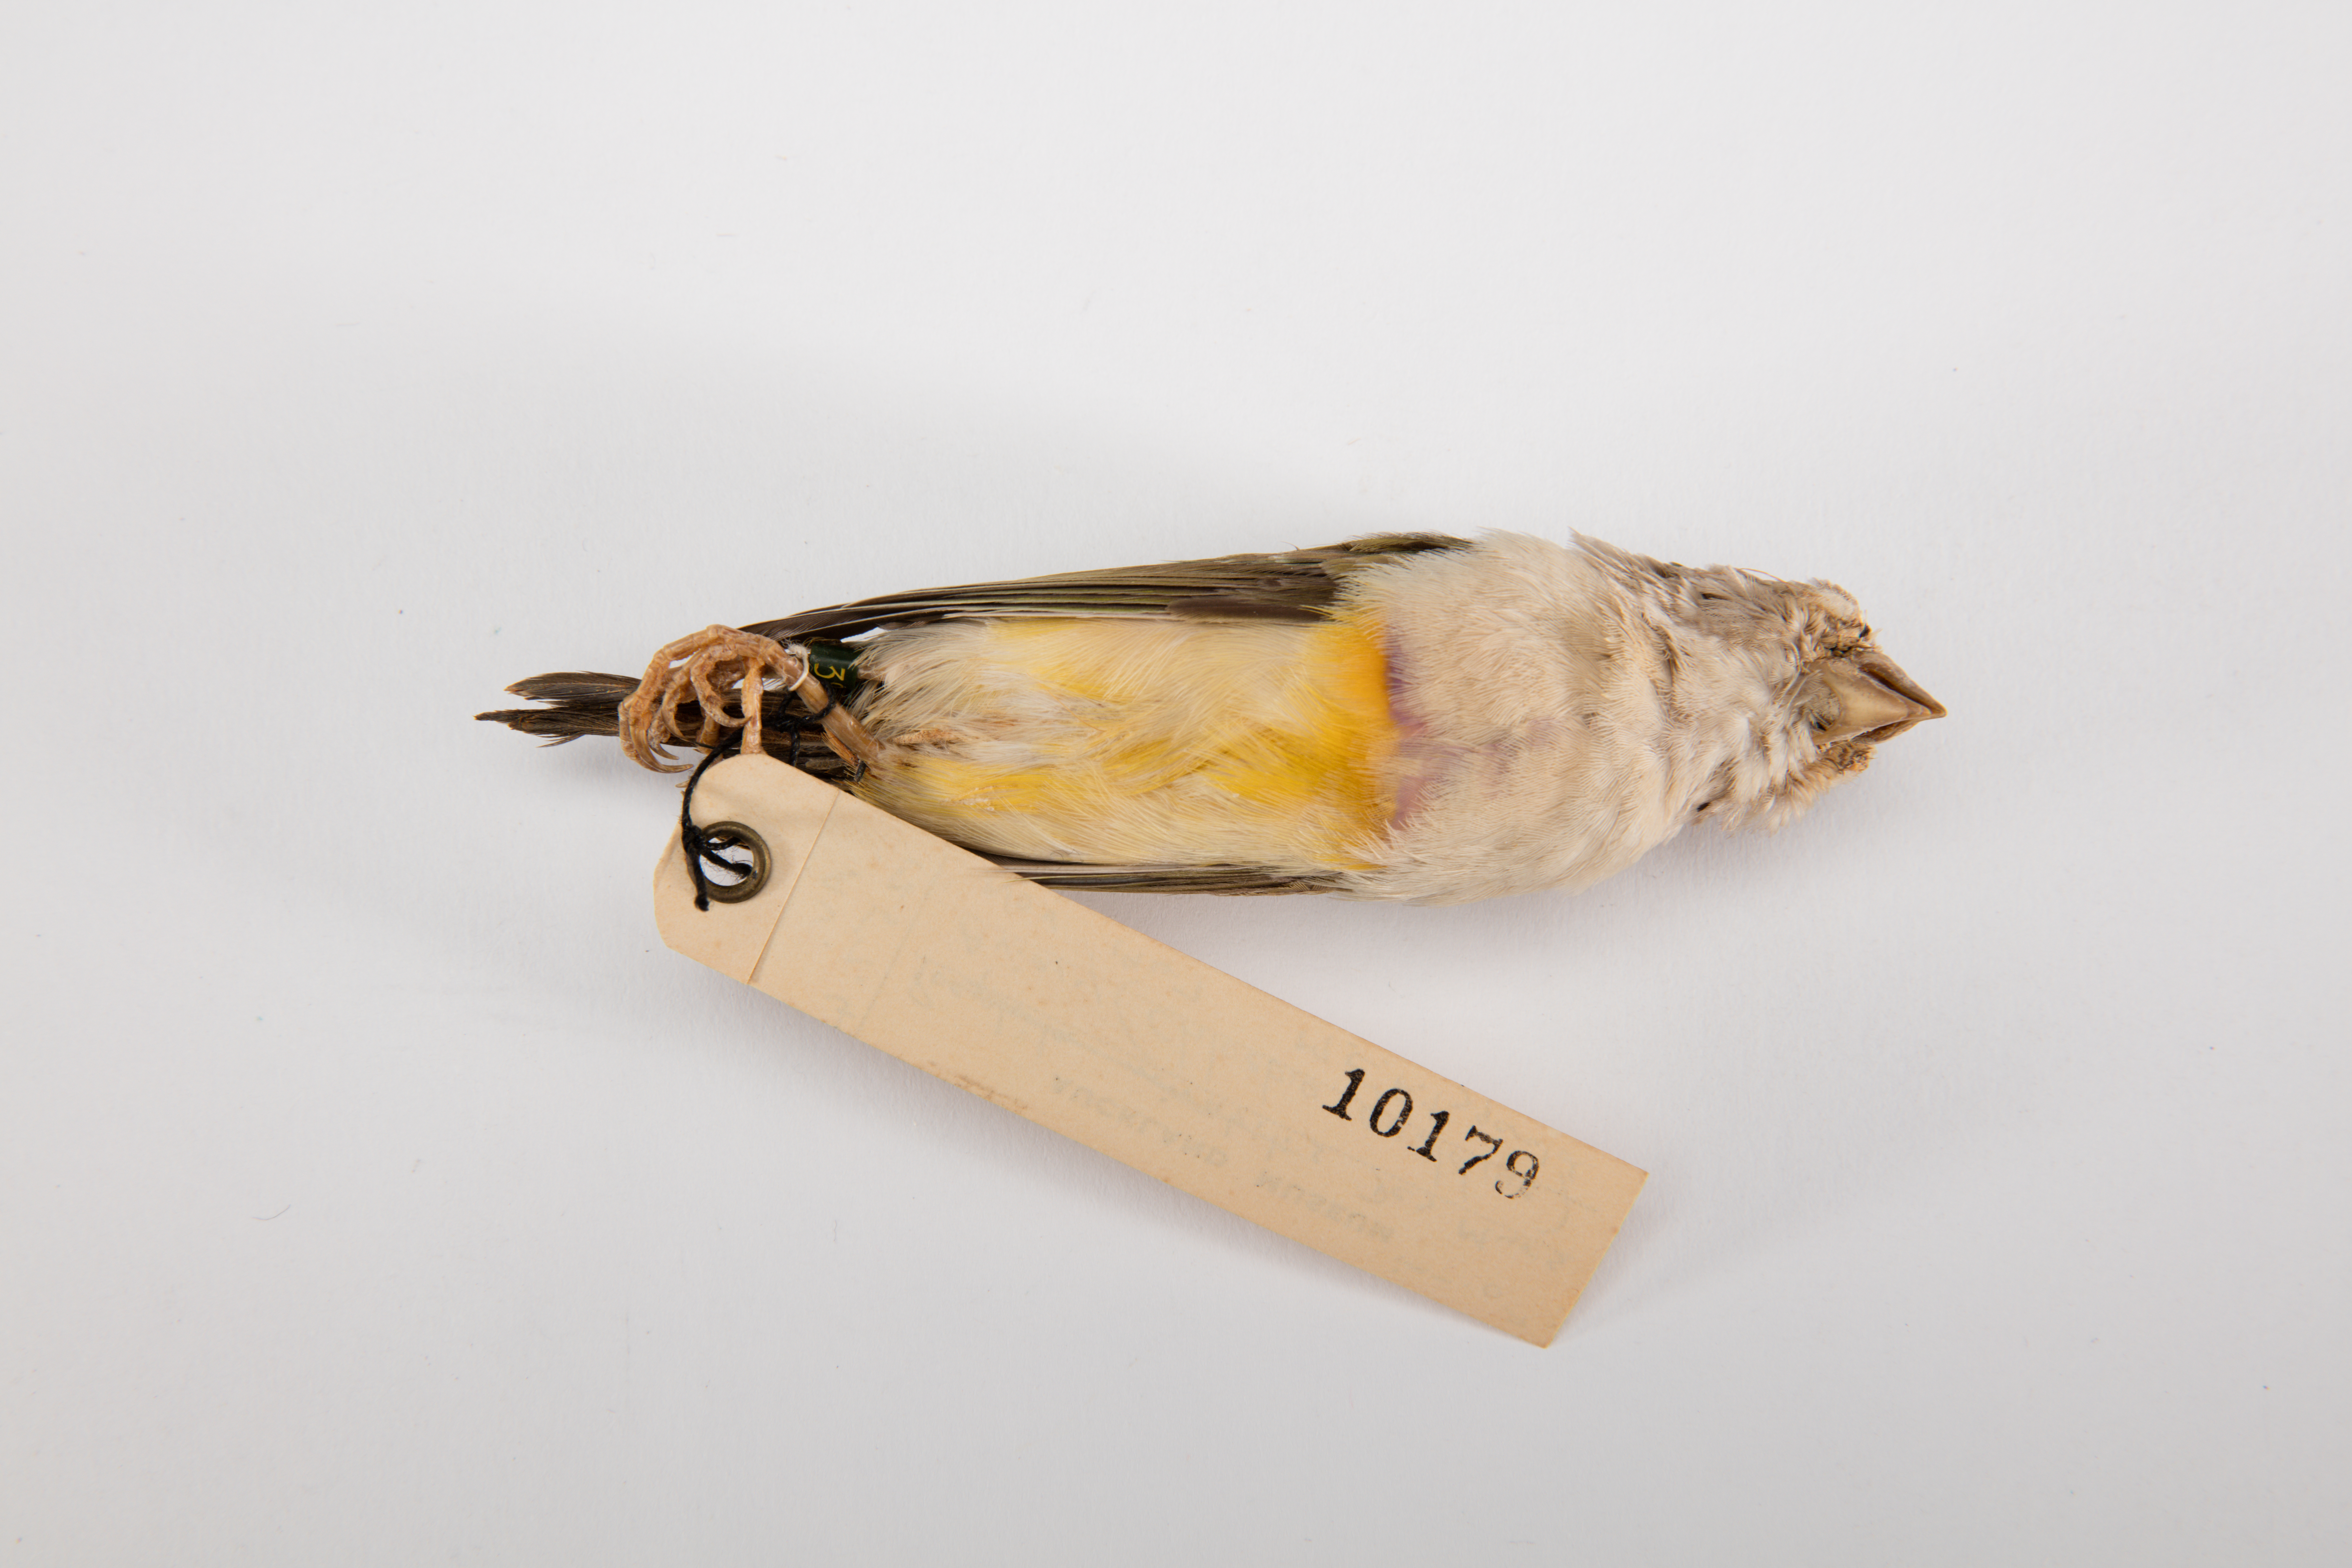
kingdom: Animalia
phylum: Chordata
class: Aves
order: Passeriformes
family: Estrildidae
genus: Erythrura
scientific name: Erythrura gouldiae
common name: Gouldian finch
